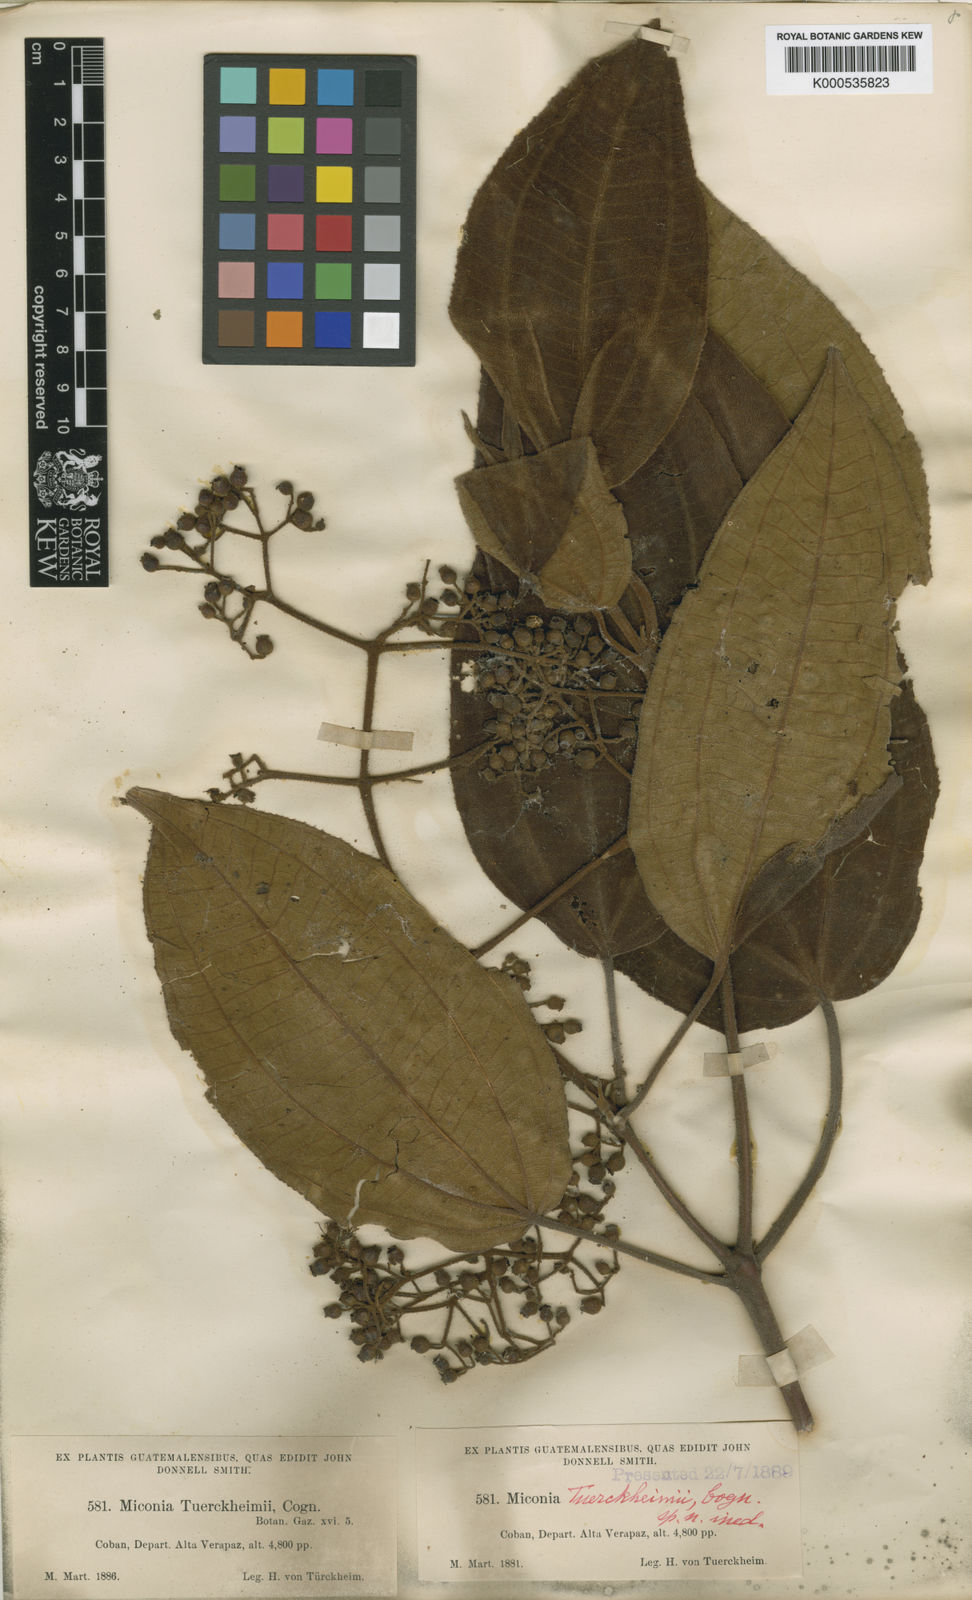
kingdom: Plantae
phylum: Tracheophyta
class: Magnoliopsida
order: Myrtales
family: Melastomataceae
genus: Miconia
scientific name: Miconia tuerckheimii
